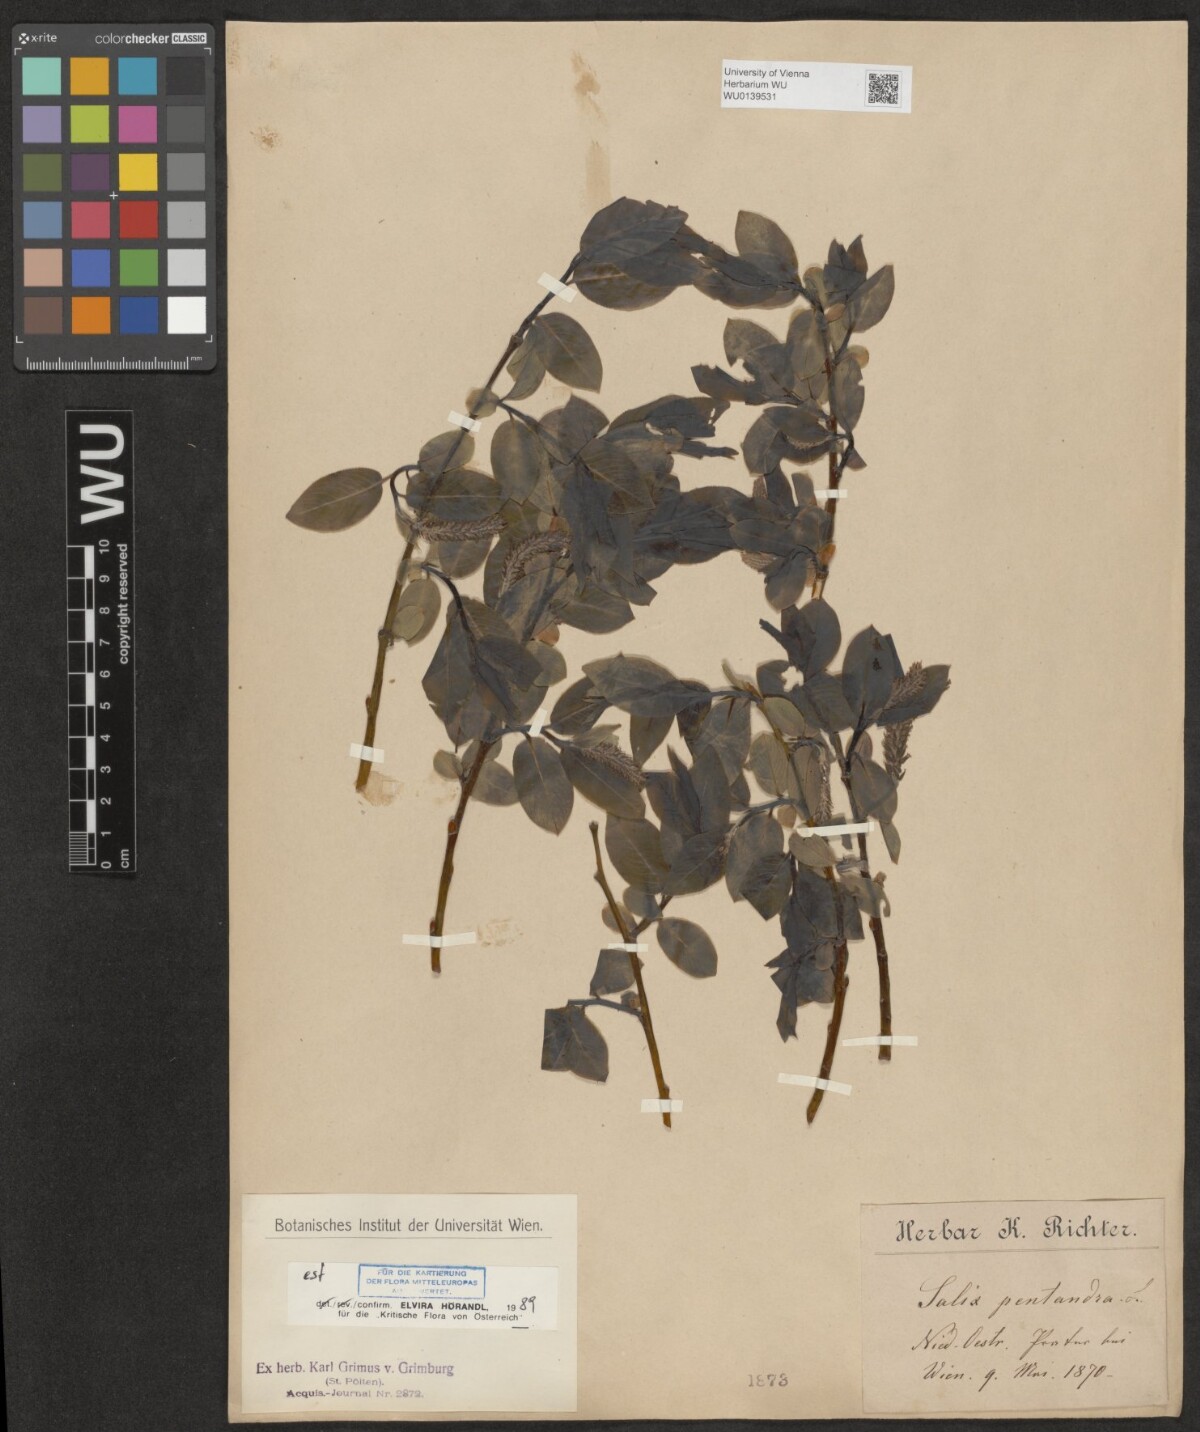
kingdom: Plantae
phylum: Tracheophyta
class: Magnoliopsida
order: Malpighiales
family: Salicaceae
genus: Salix
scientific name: Salix rubens
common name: Hybrid crack willow
